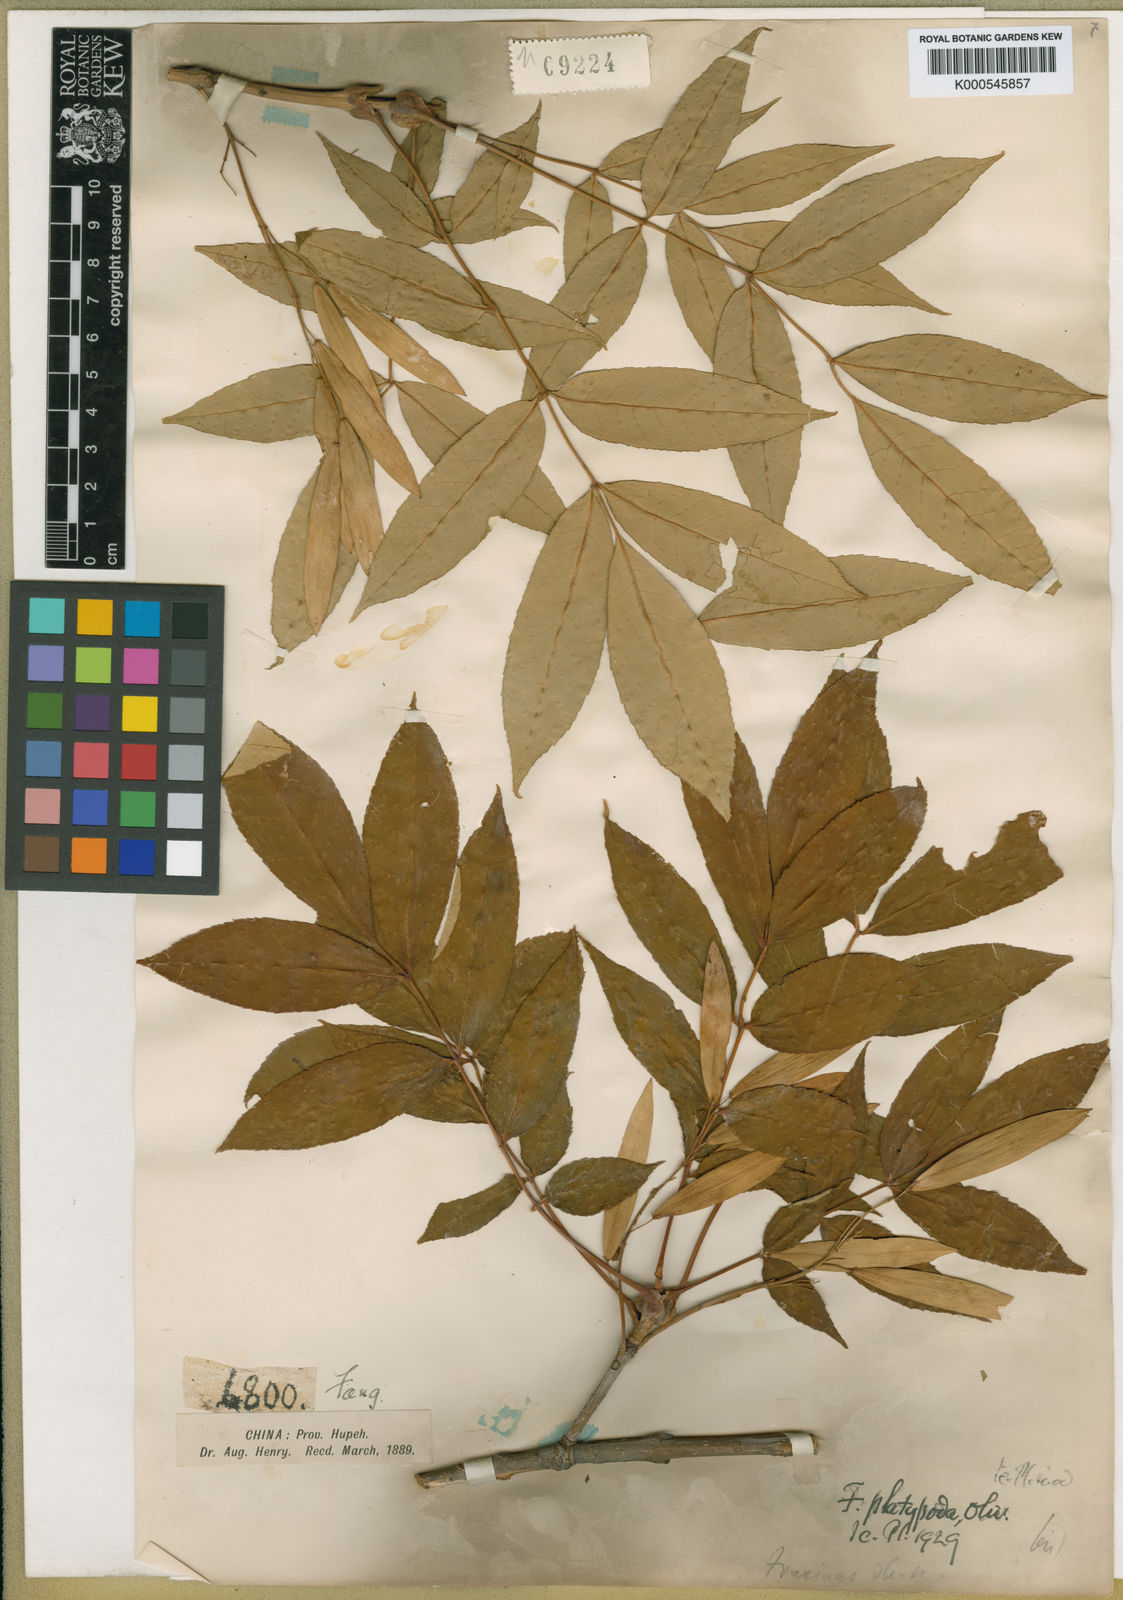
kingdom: Plantae
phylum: Tracheophyta
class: Magnoliopsida
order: Lamiales
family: Oleaceae
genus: Fraxinus
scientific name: Fraxinus platypoda
